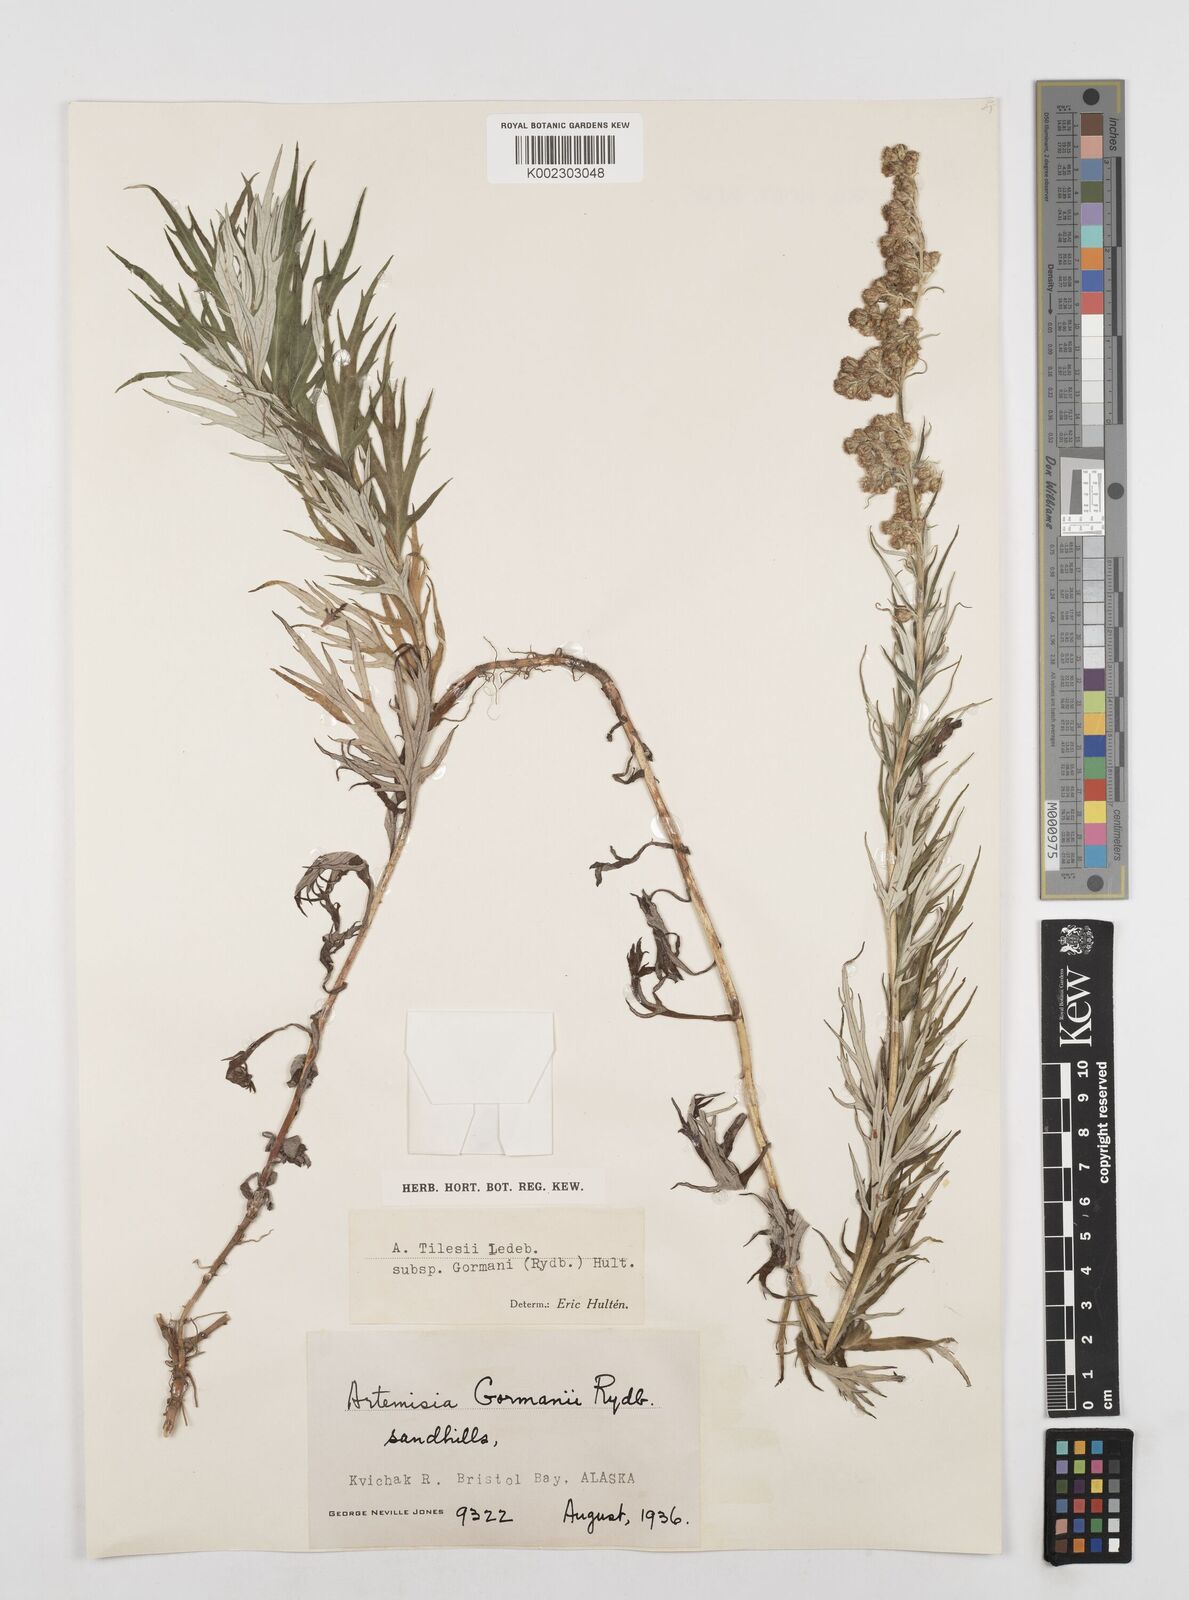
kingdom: Plantae
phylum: Tracheophyta
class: Magnoliopsida
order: Asterales
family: Asteraceae
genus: Artemisia
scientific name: Artemisia tilesii
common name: Aleutian mugwort
